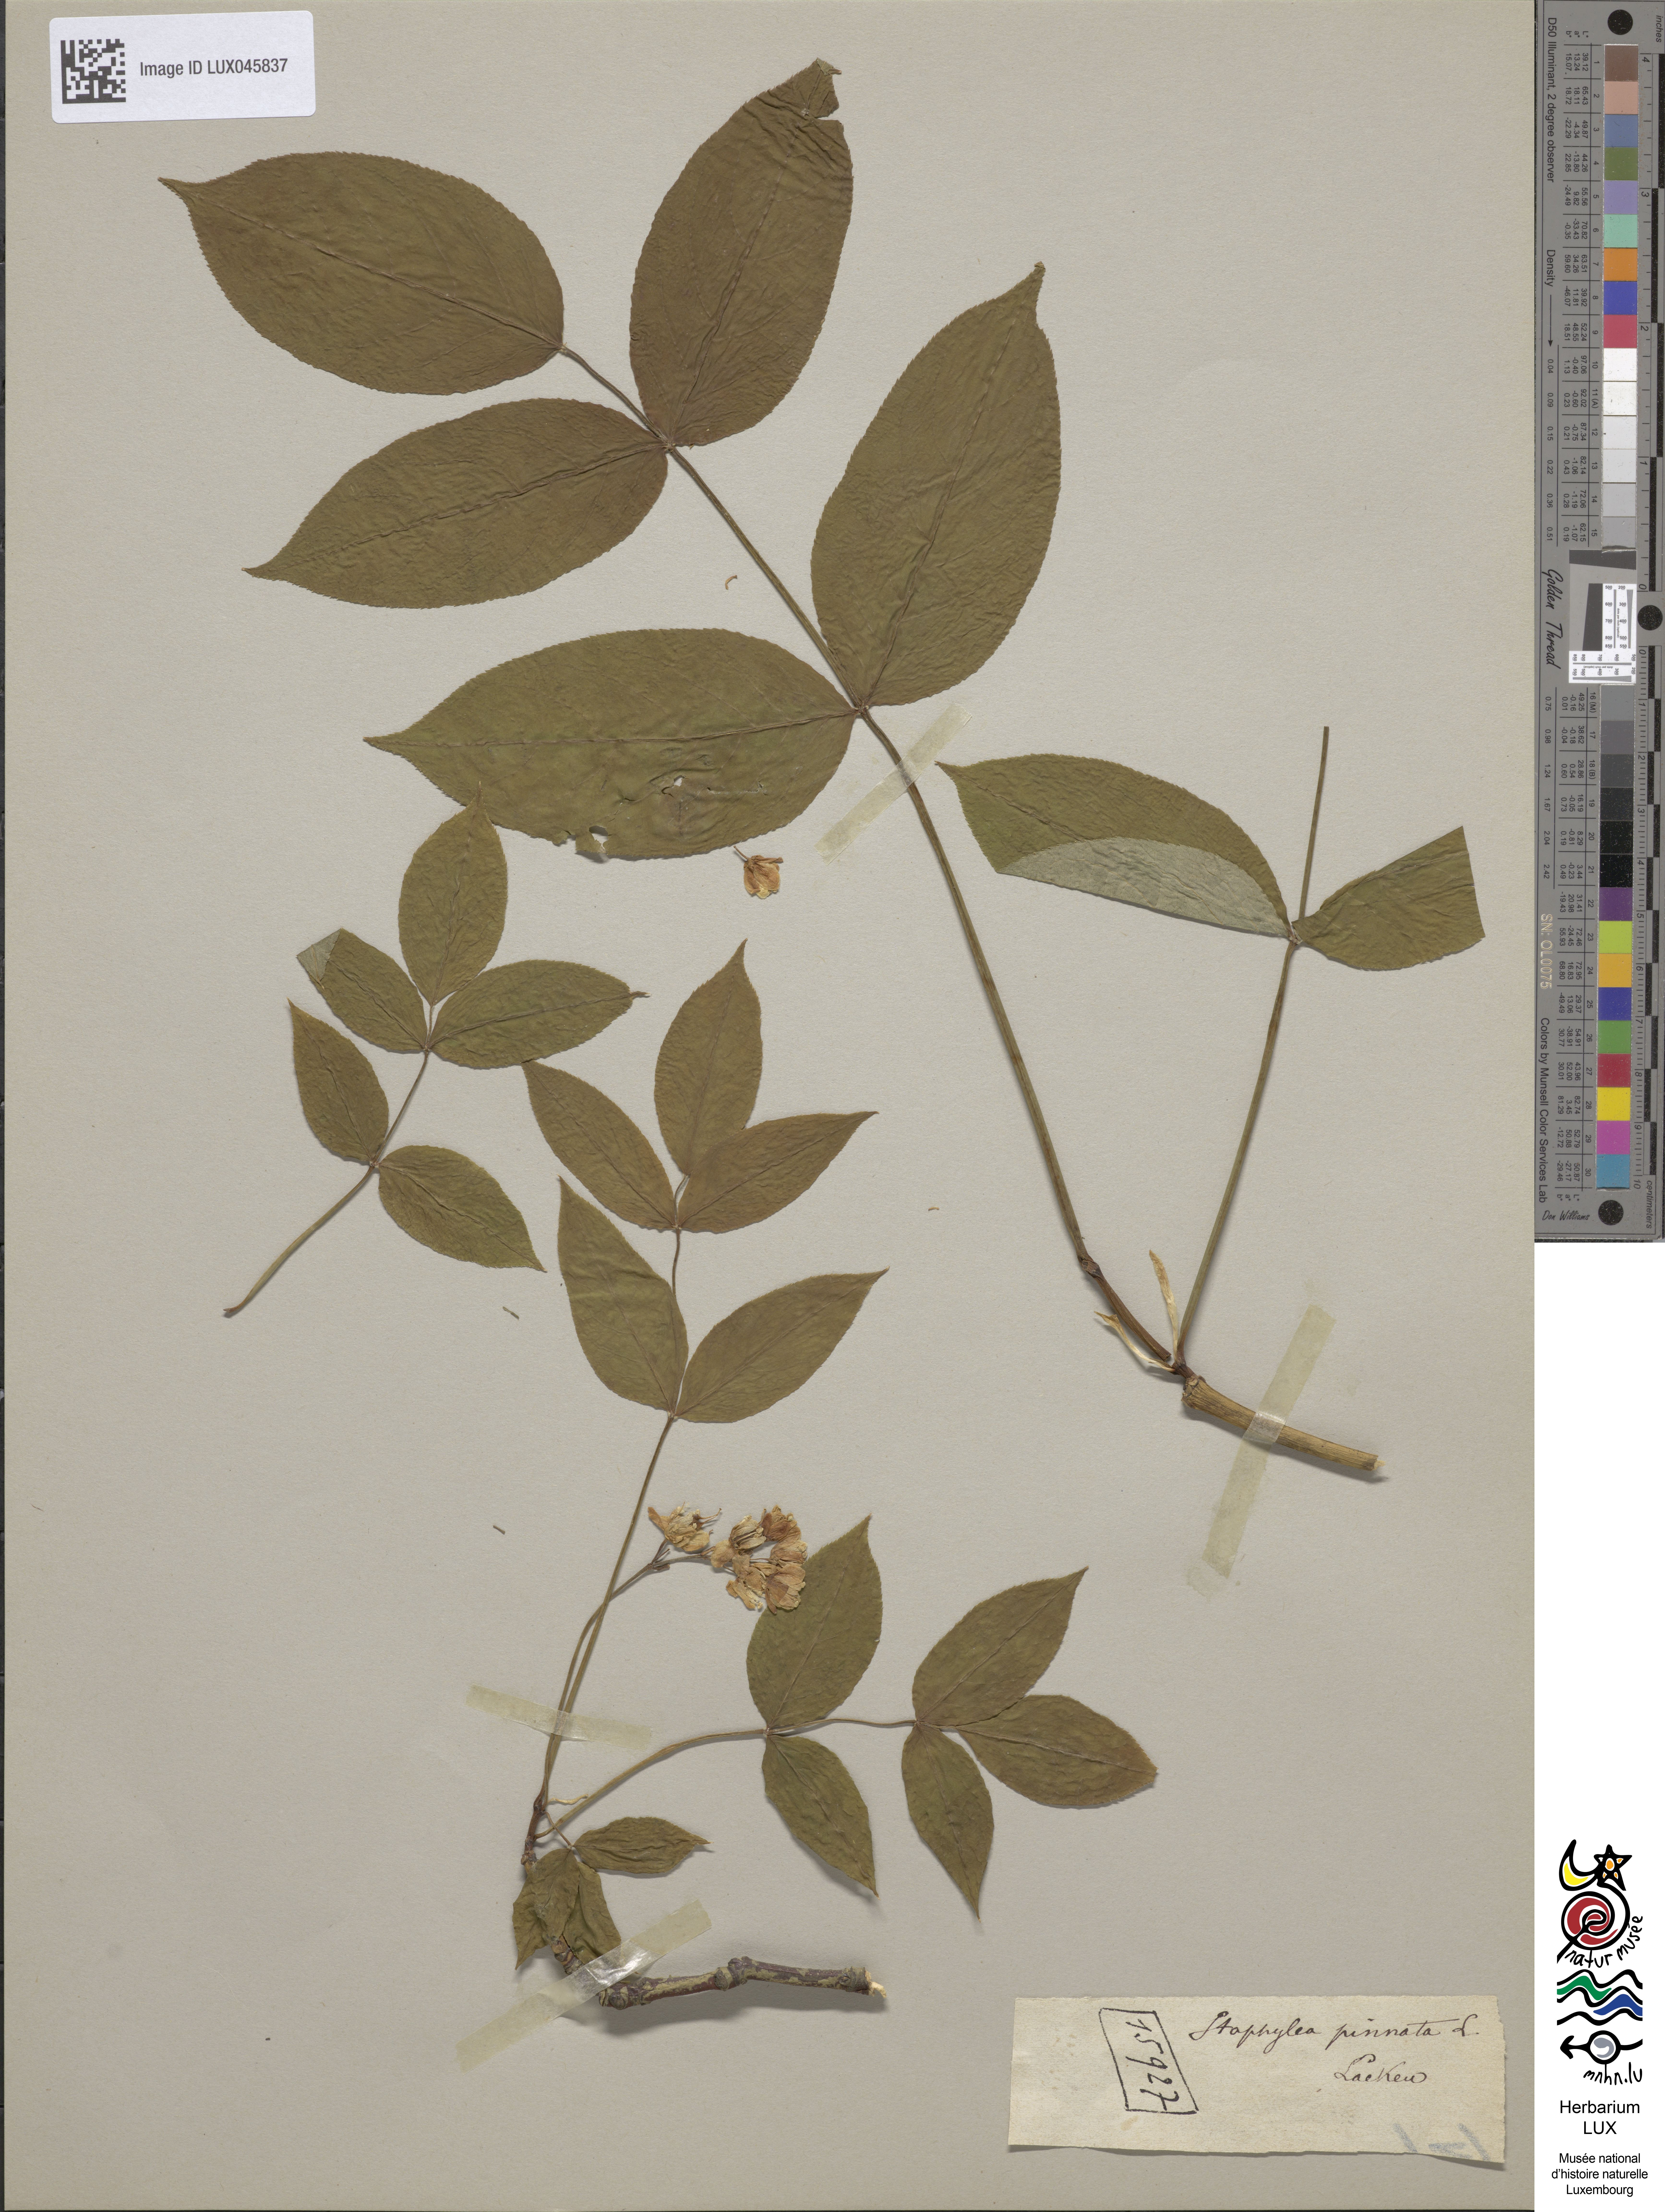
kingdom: Plantae
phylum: Tracheophyta
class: Magnoliopsida
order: Crossosomatales
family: Staphyleaceae
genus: Staphylea
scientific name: Staphylea pinnata
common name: Bladdernut
